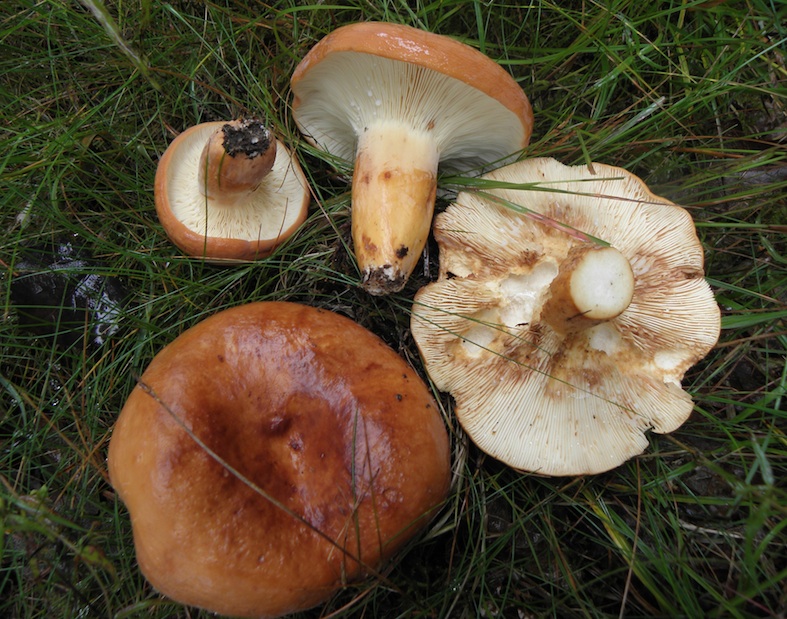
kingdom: Fungi
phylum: Basidiomycota
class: Agaricomycetes
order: Russulales
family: Russulaceae
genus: Lactifluus
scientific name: Lactifluus volemus
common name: spiselig mælkehat
